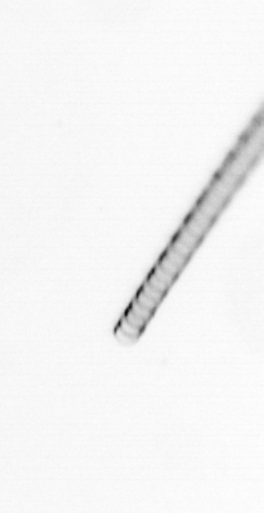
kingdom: Chromista
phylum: Ochrophyta
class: Bacillariophyceae
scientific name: Bacillariophyceae
